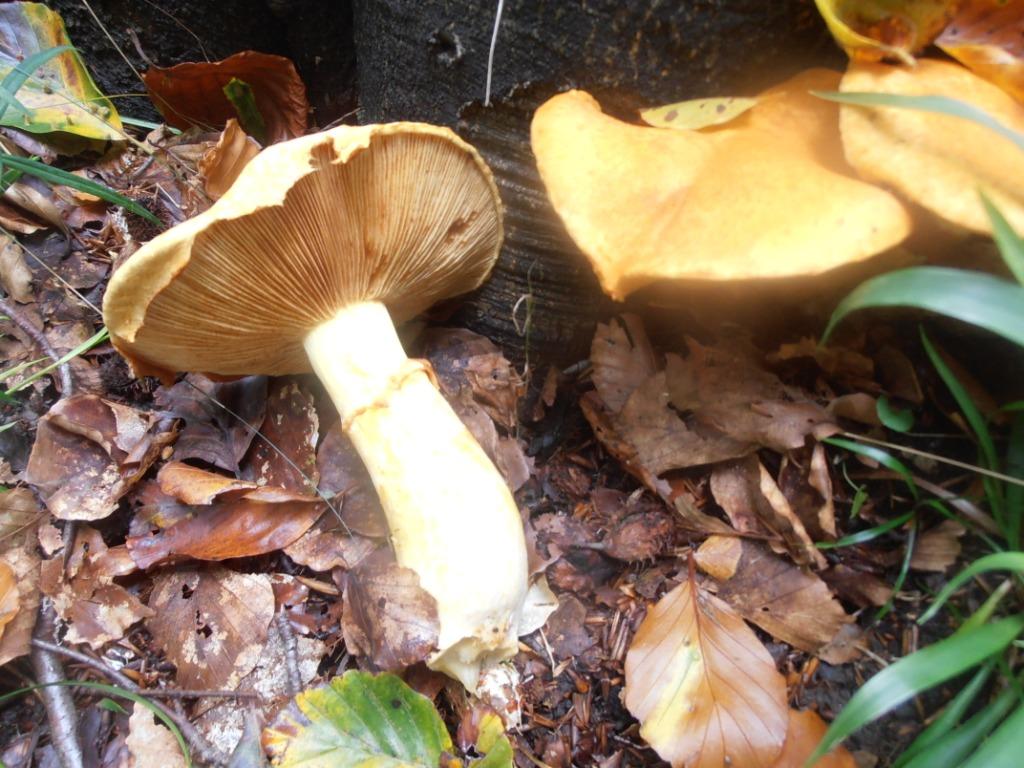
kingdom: Fungi
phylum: Basidiomycota
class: Agaricomycetes
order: Agaricales
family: Hymenogastraceae
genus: Gymnopilus
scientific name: Gymnopilus spectabilis
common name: fibret flammehat
